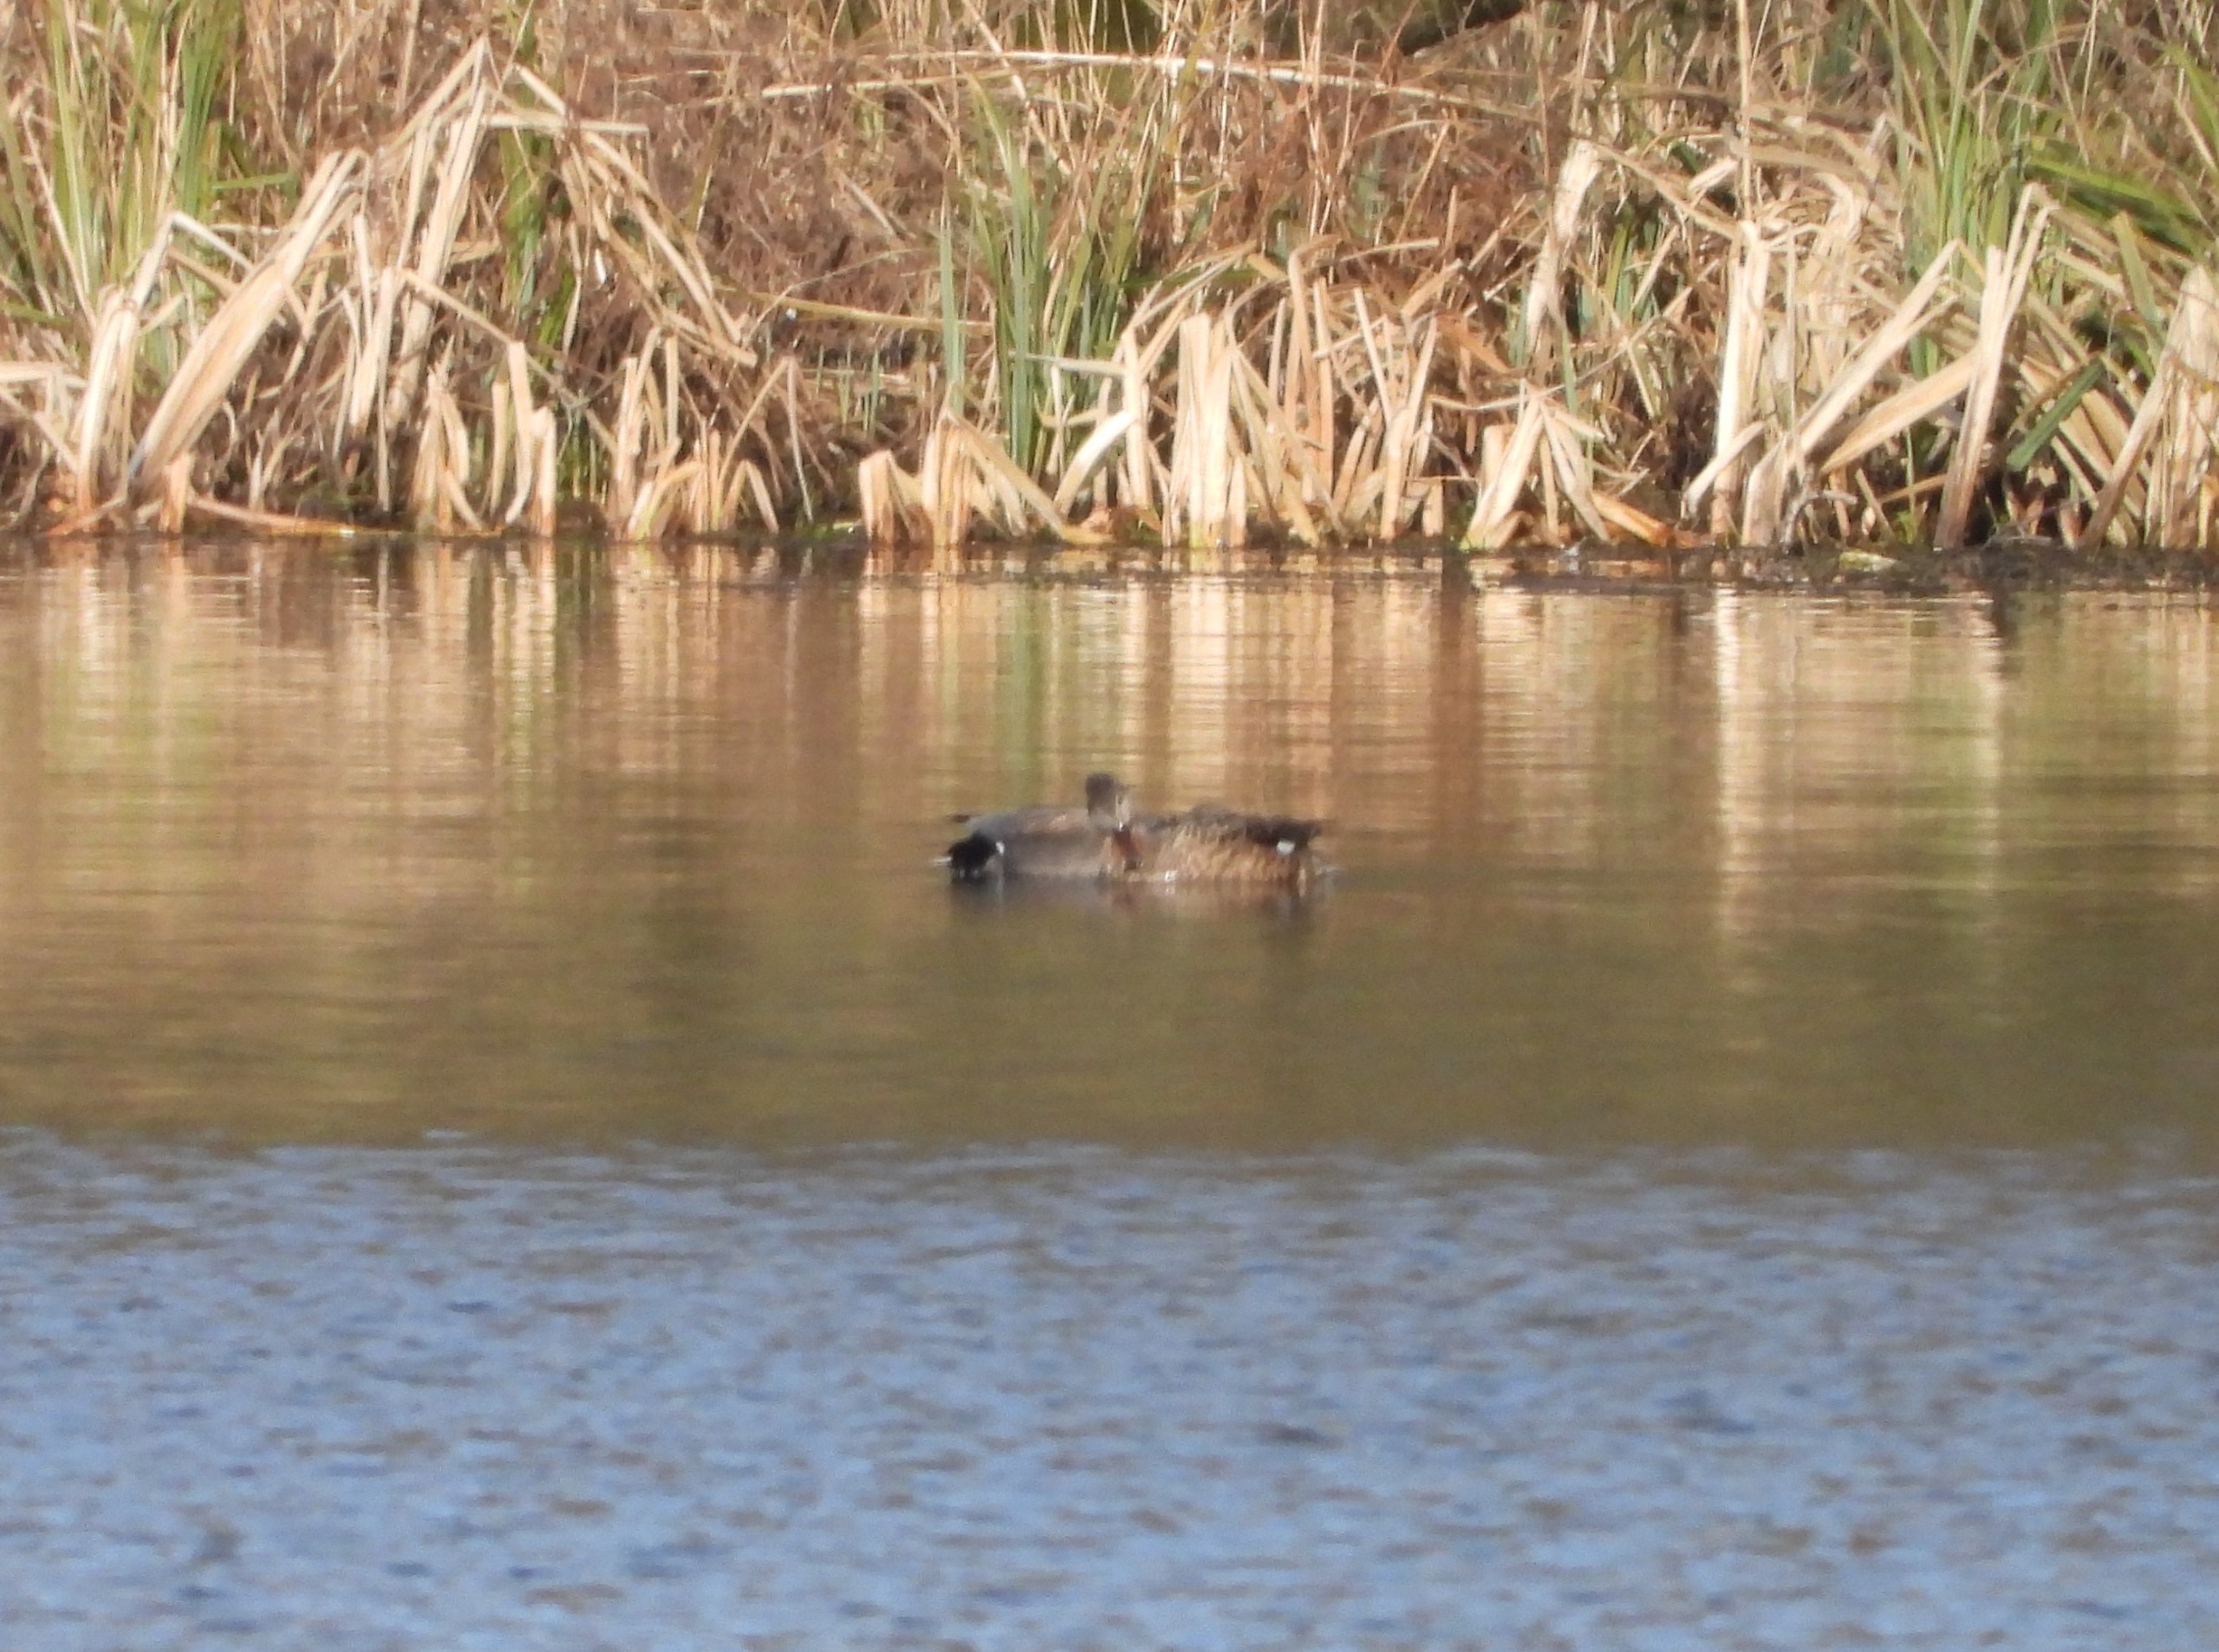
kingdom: Animalia
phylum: Chordata
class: Aves
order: Anseriformes
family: Anatidae
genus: Mareca
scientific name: Mareca strepera
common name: Knarand
